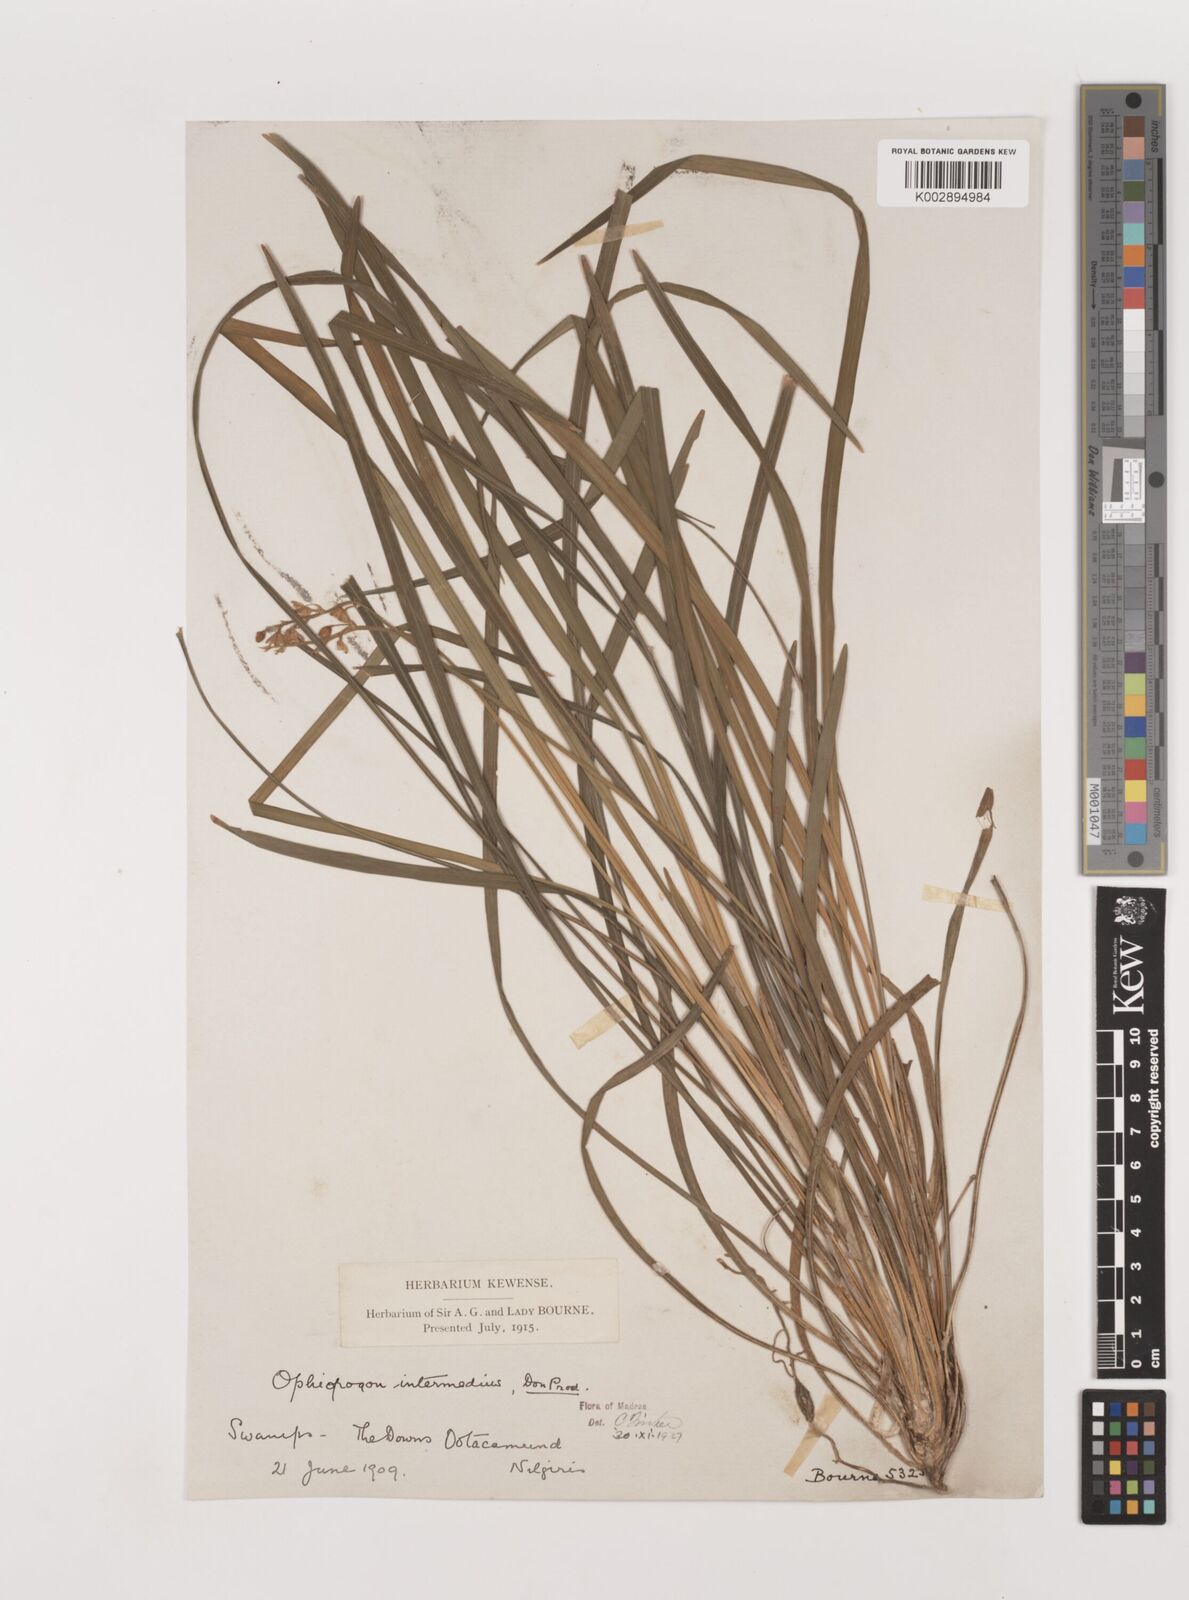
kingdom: Plantae
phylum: Tracheophyta
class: Liliopsida
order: Asparagales
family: Asparagaceae
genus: Ophiopogon
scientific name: Ophiopogon intermedius
